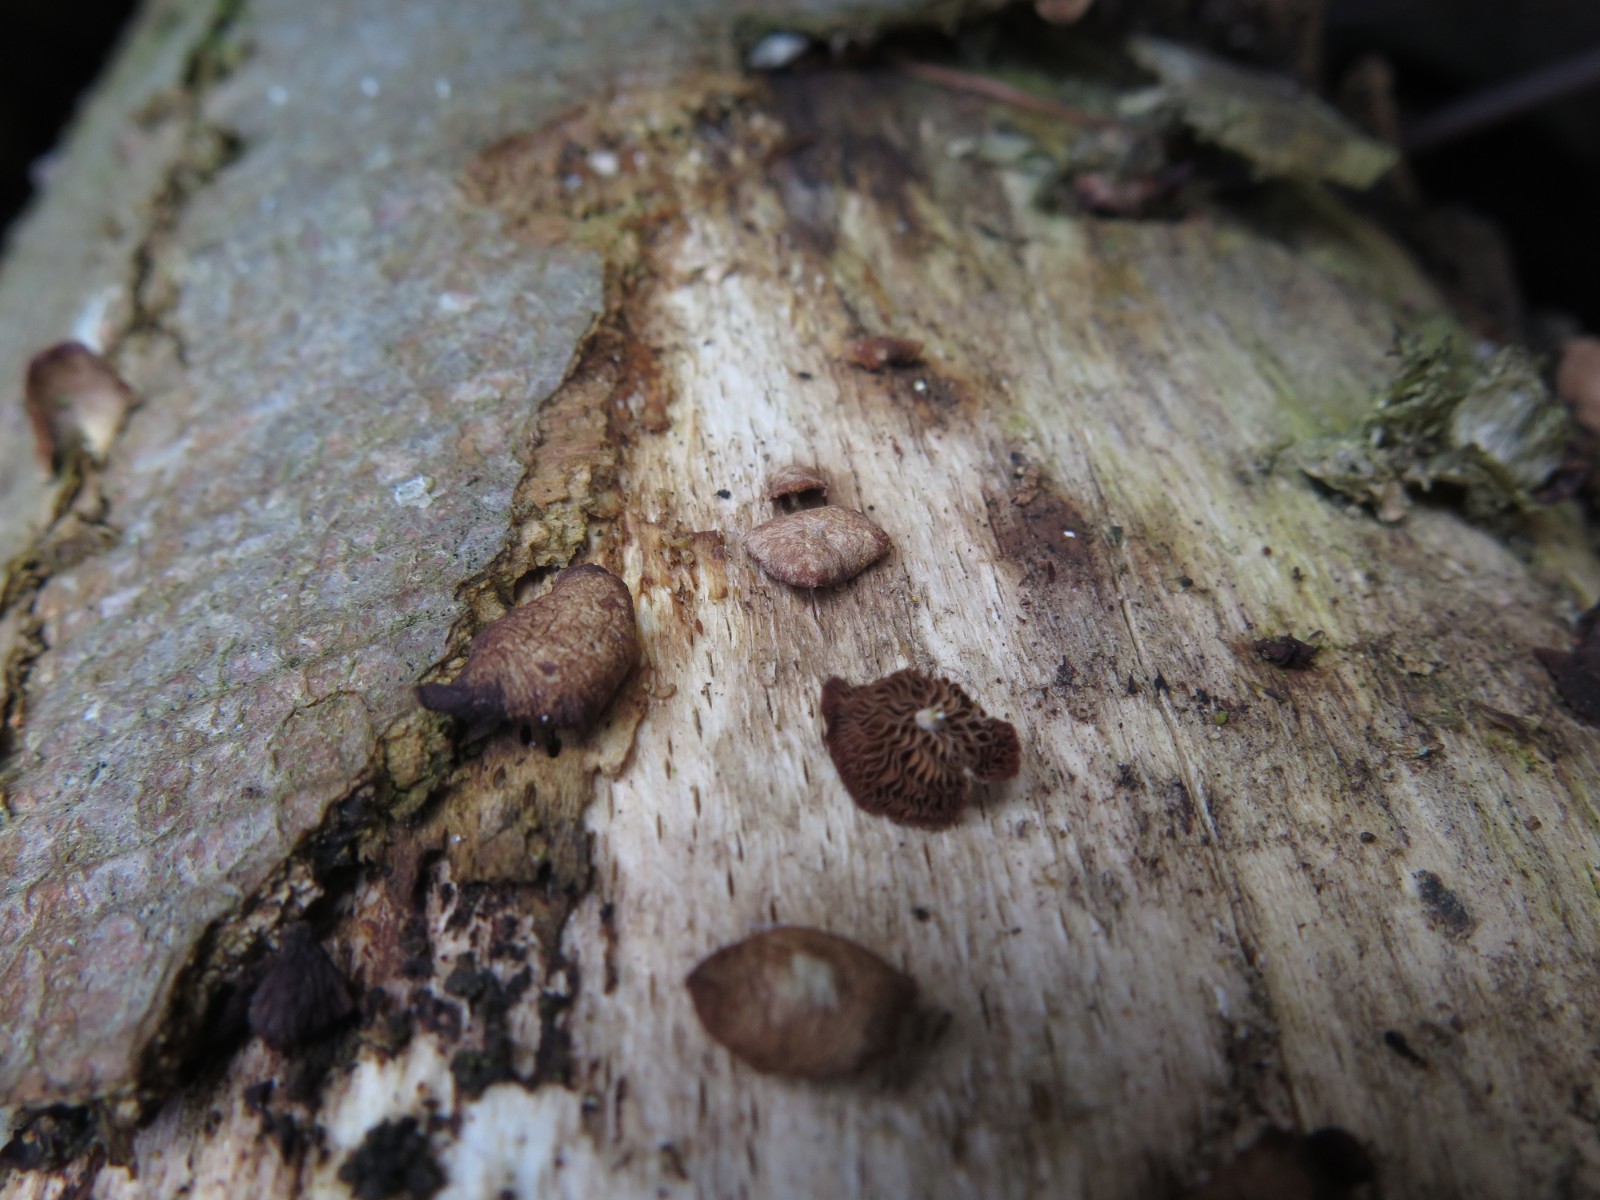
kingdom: Fungi
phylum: Basidiomycota
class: Agaricomycetes
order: Agaricales
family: Strophariaceae
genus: Deconica
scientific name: Deconica horizontalis
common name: ved-stråhat
